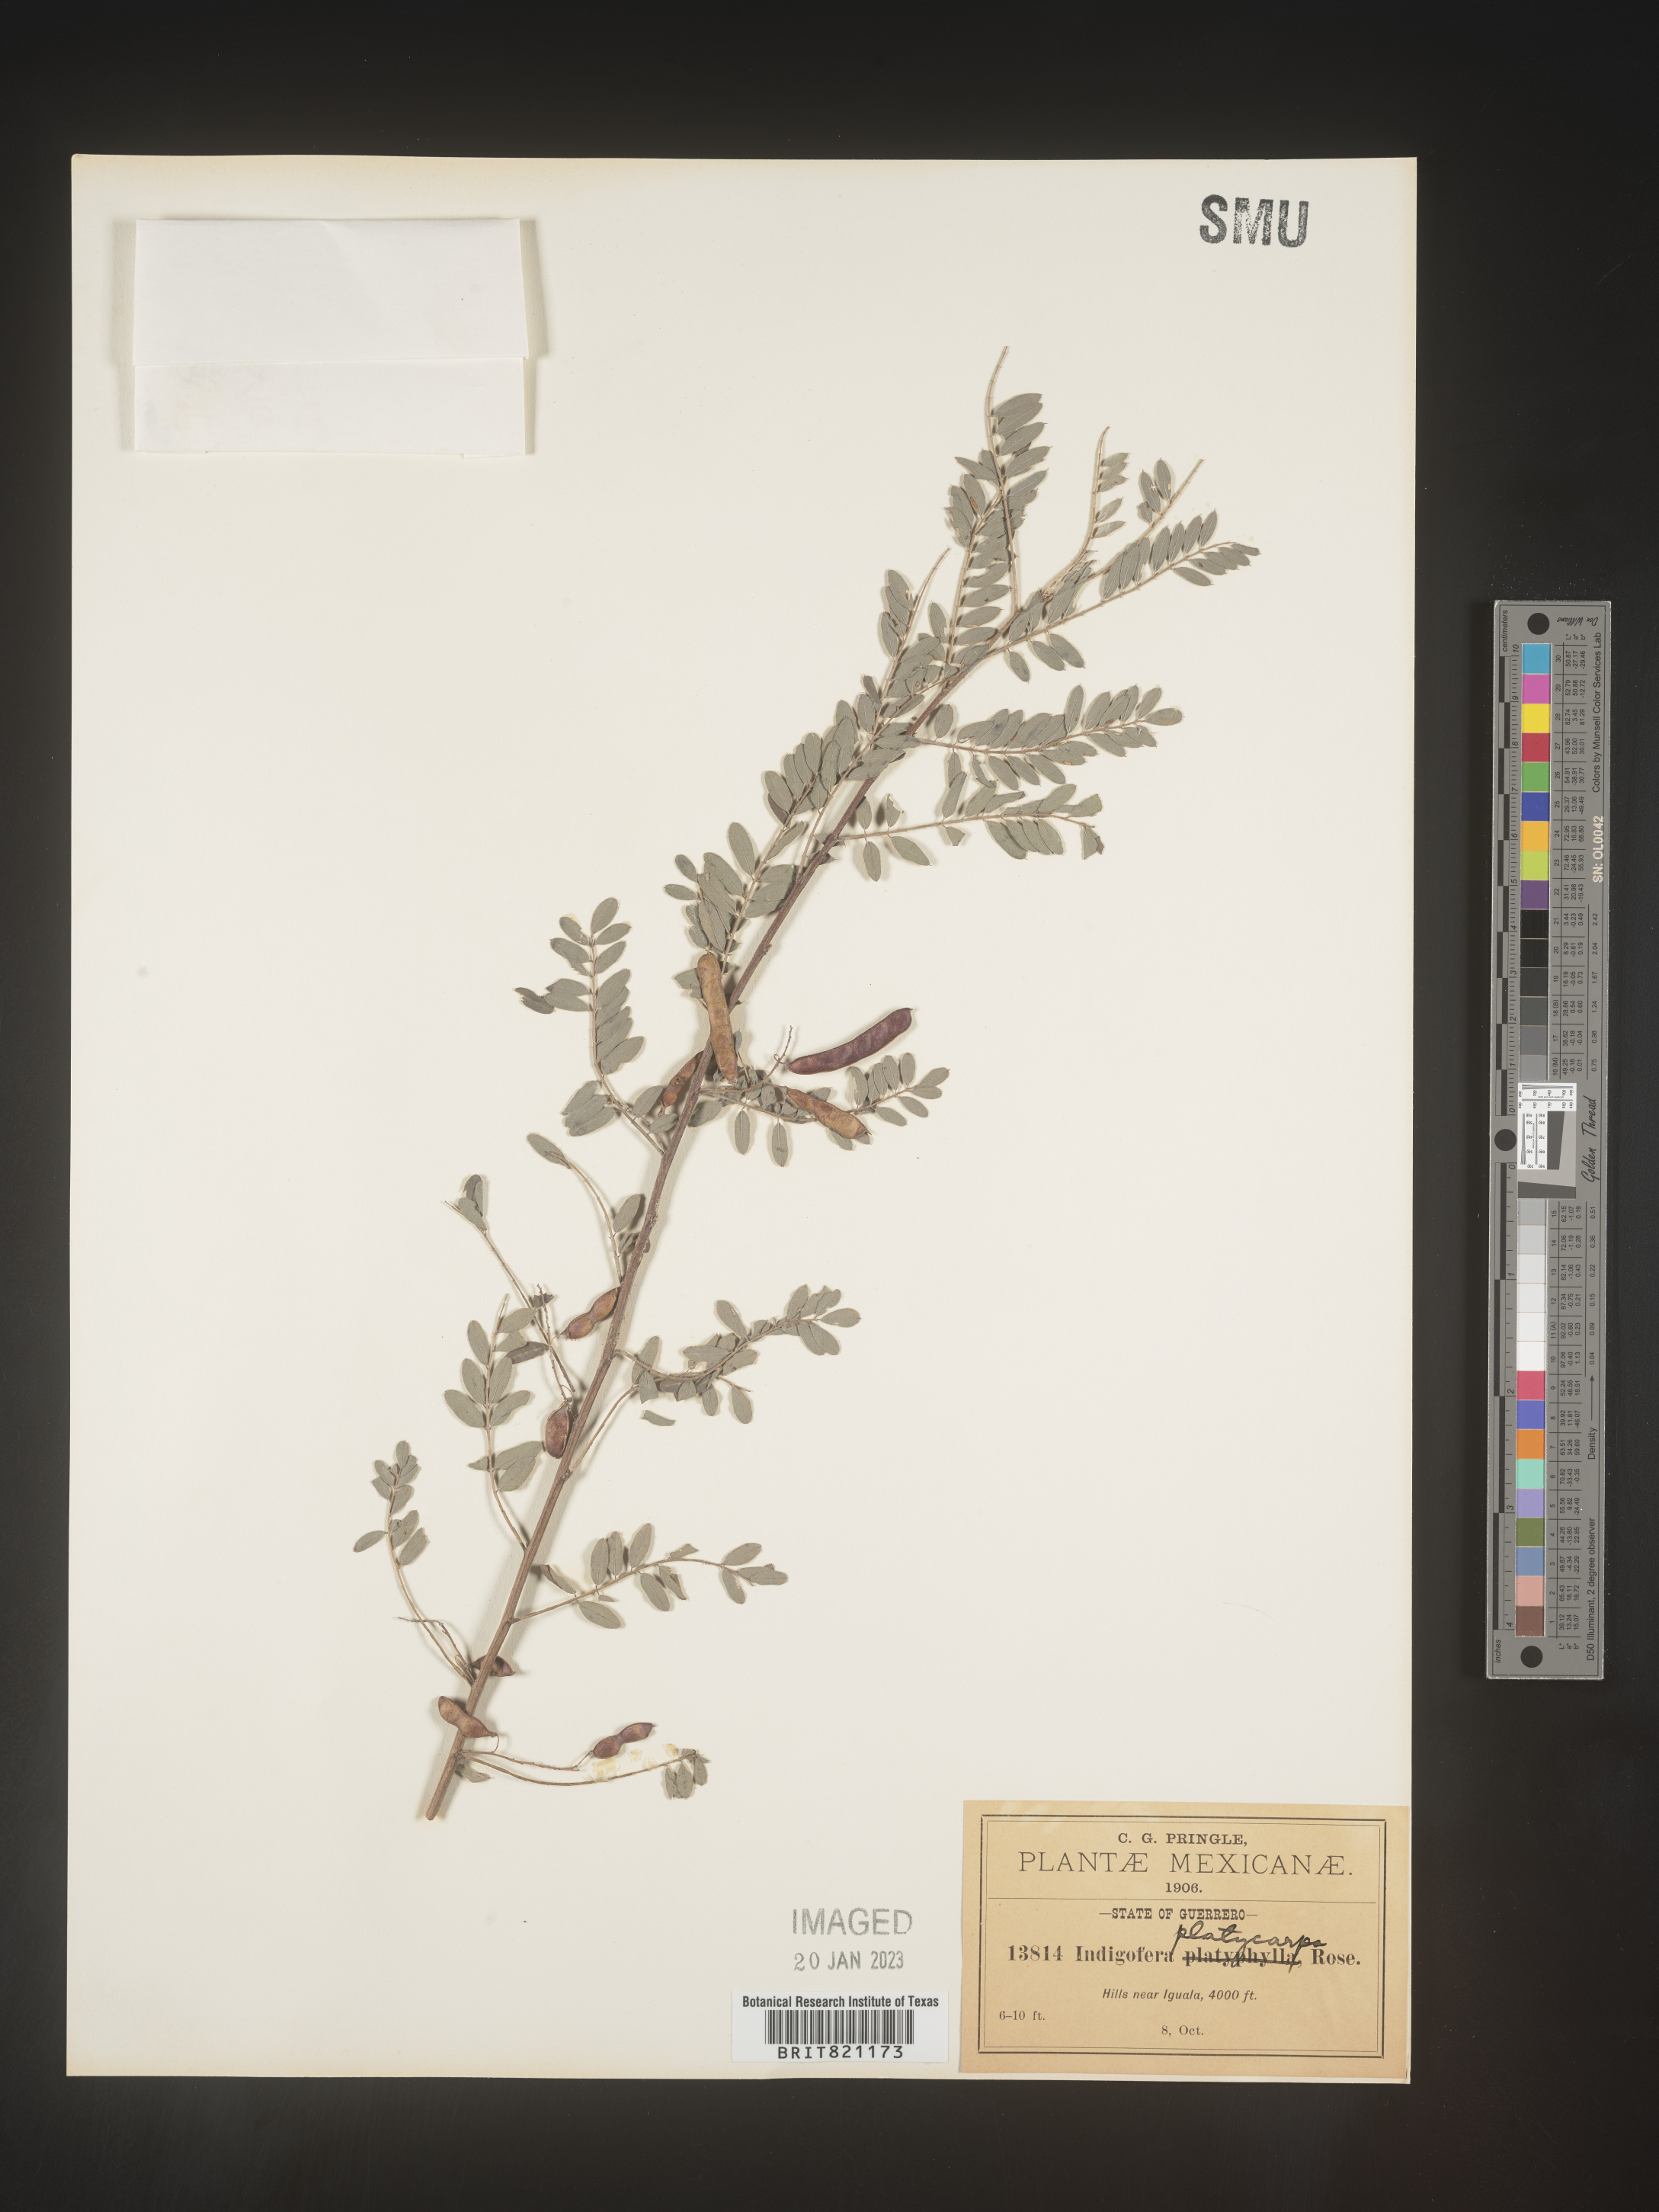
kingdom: Plantae
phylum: Tracheophyta
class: Magnoliopsida
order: Fabales
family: Fabaceae
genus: Indigofera
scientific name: Indigofera
